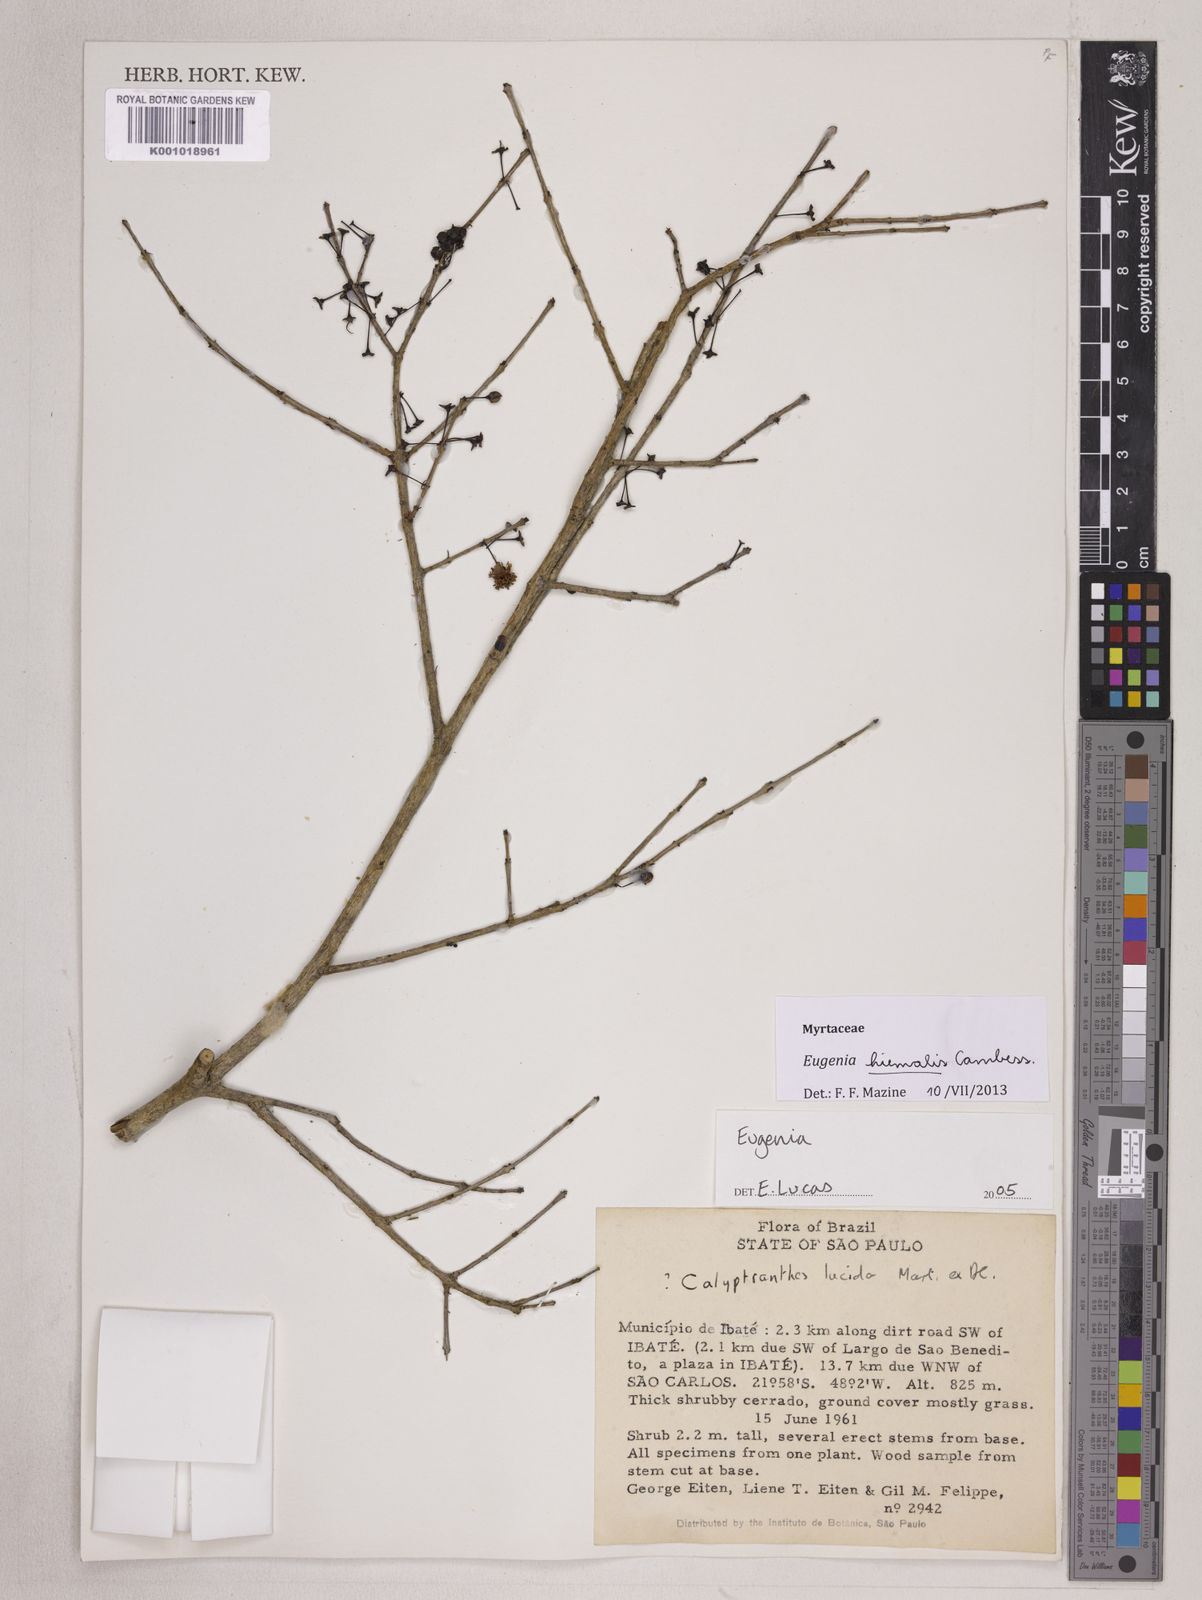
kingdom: Plantae
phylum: Tracheophyta
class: Magnoliopsida
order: Myrtales
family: Myrtaceae
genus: Eugenia
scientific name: Eugenia hiemalis
